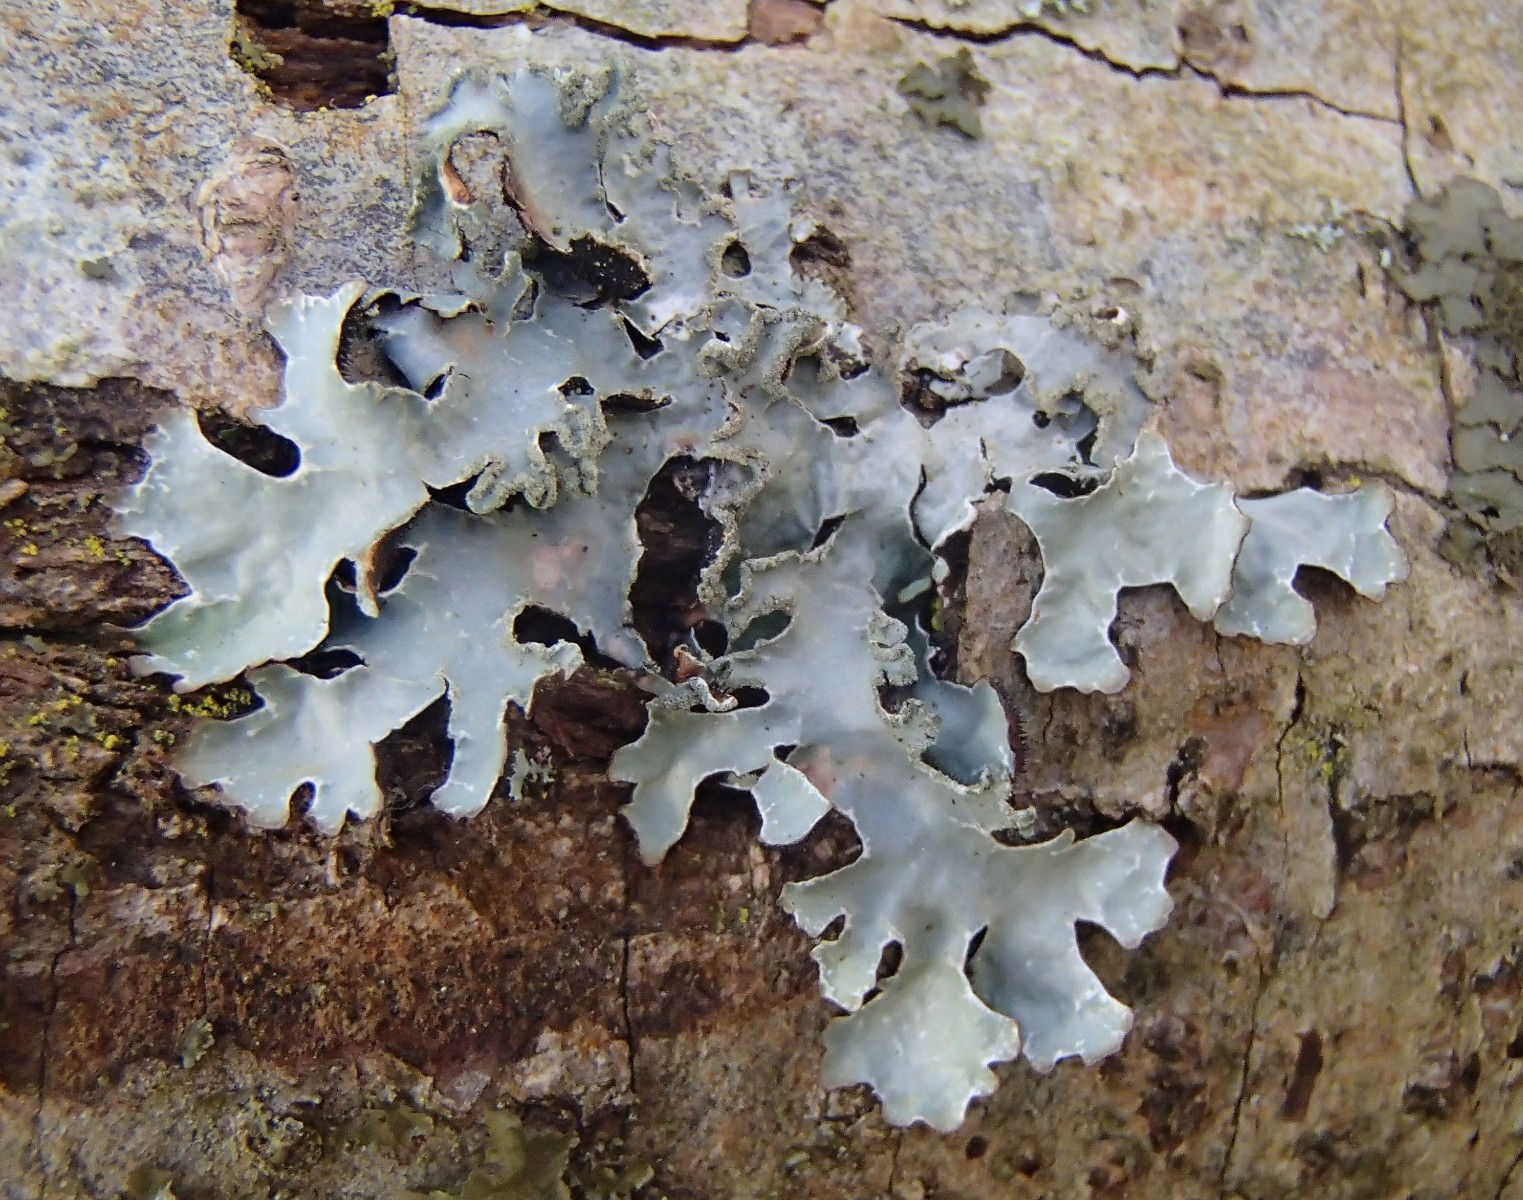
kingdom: Fungi
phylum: Ascomycota
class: Lecanoromycetes
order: Lecanorales
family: Parmeliaceae
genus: Parmelia
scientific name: Parmelia sulcata
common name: rynket skållav
